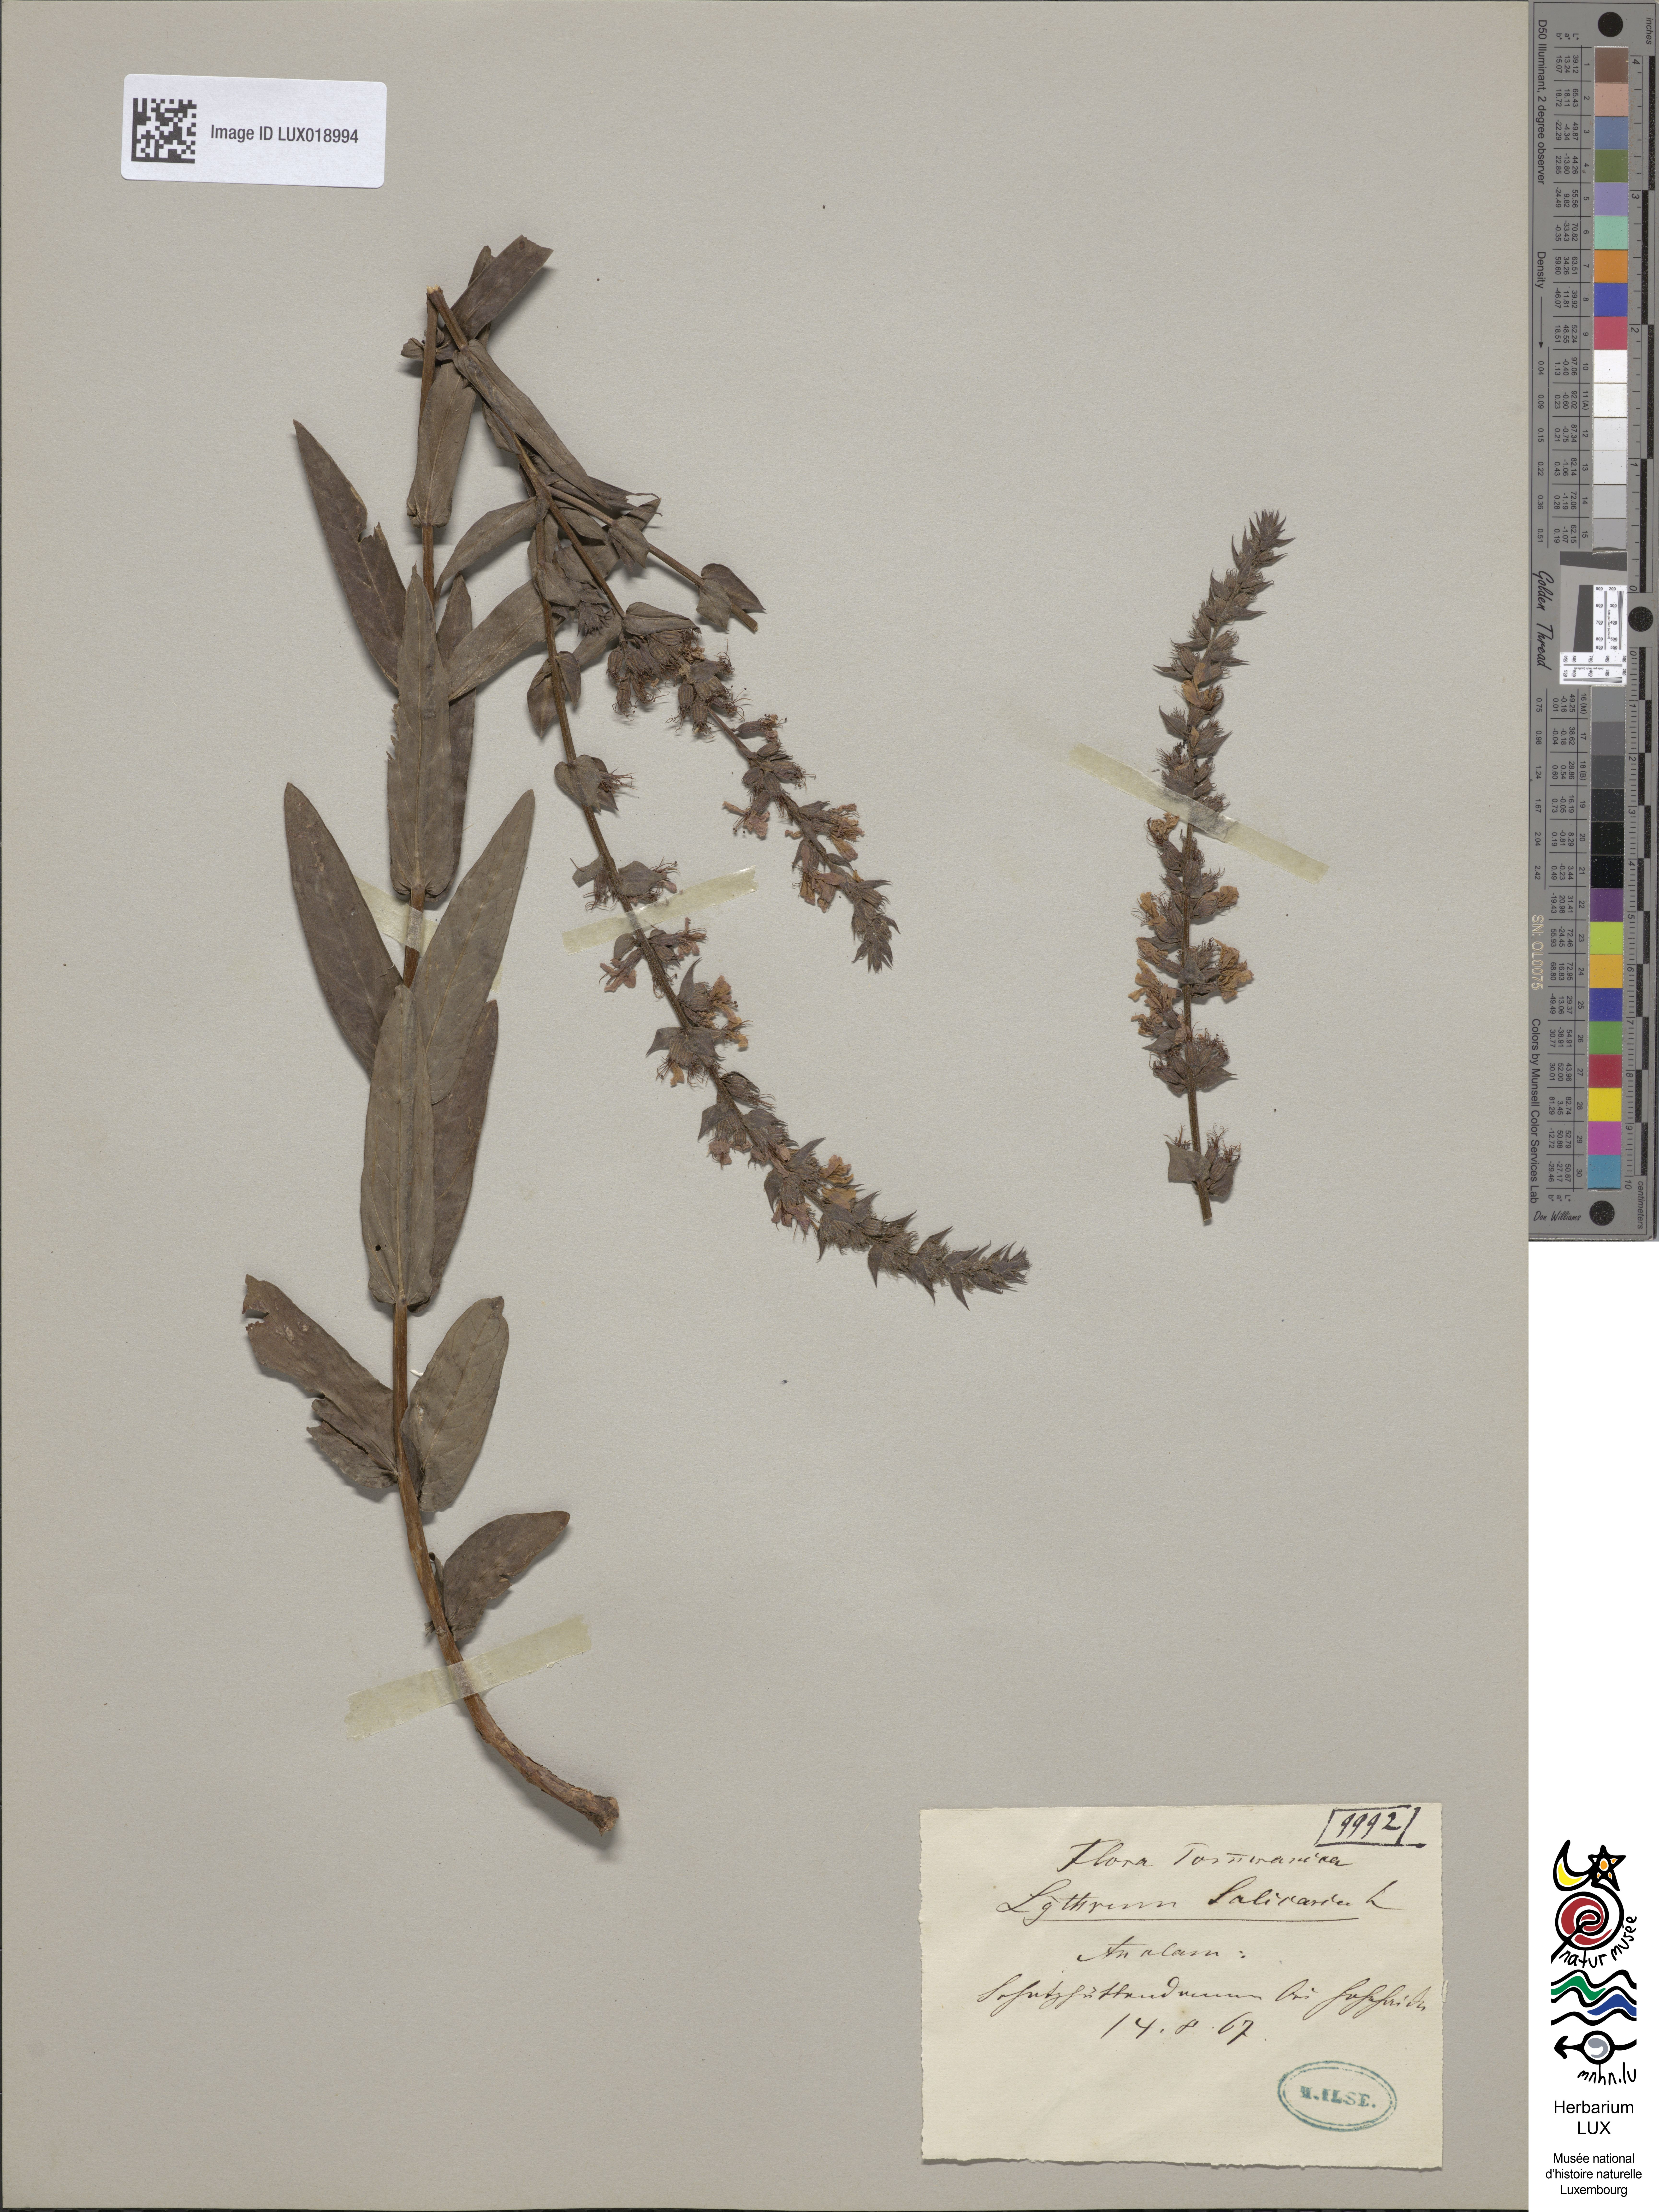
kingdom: Plantae
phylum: Tracheophyta
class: Magnoliopsida
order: Myrtales
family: Lythraceae
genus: Lythrum
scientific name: Lythrum salicaria
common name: Purple loosestrife
